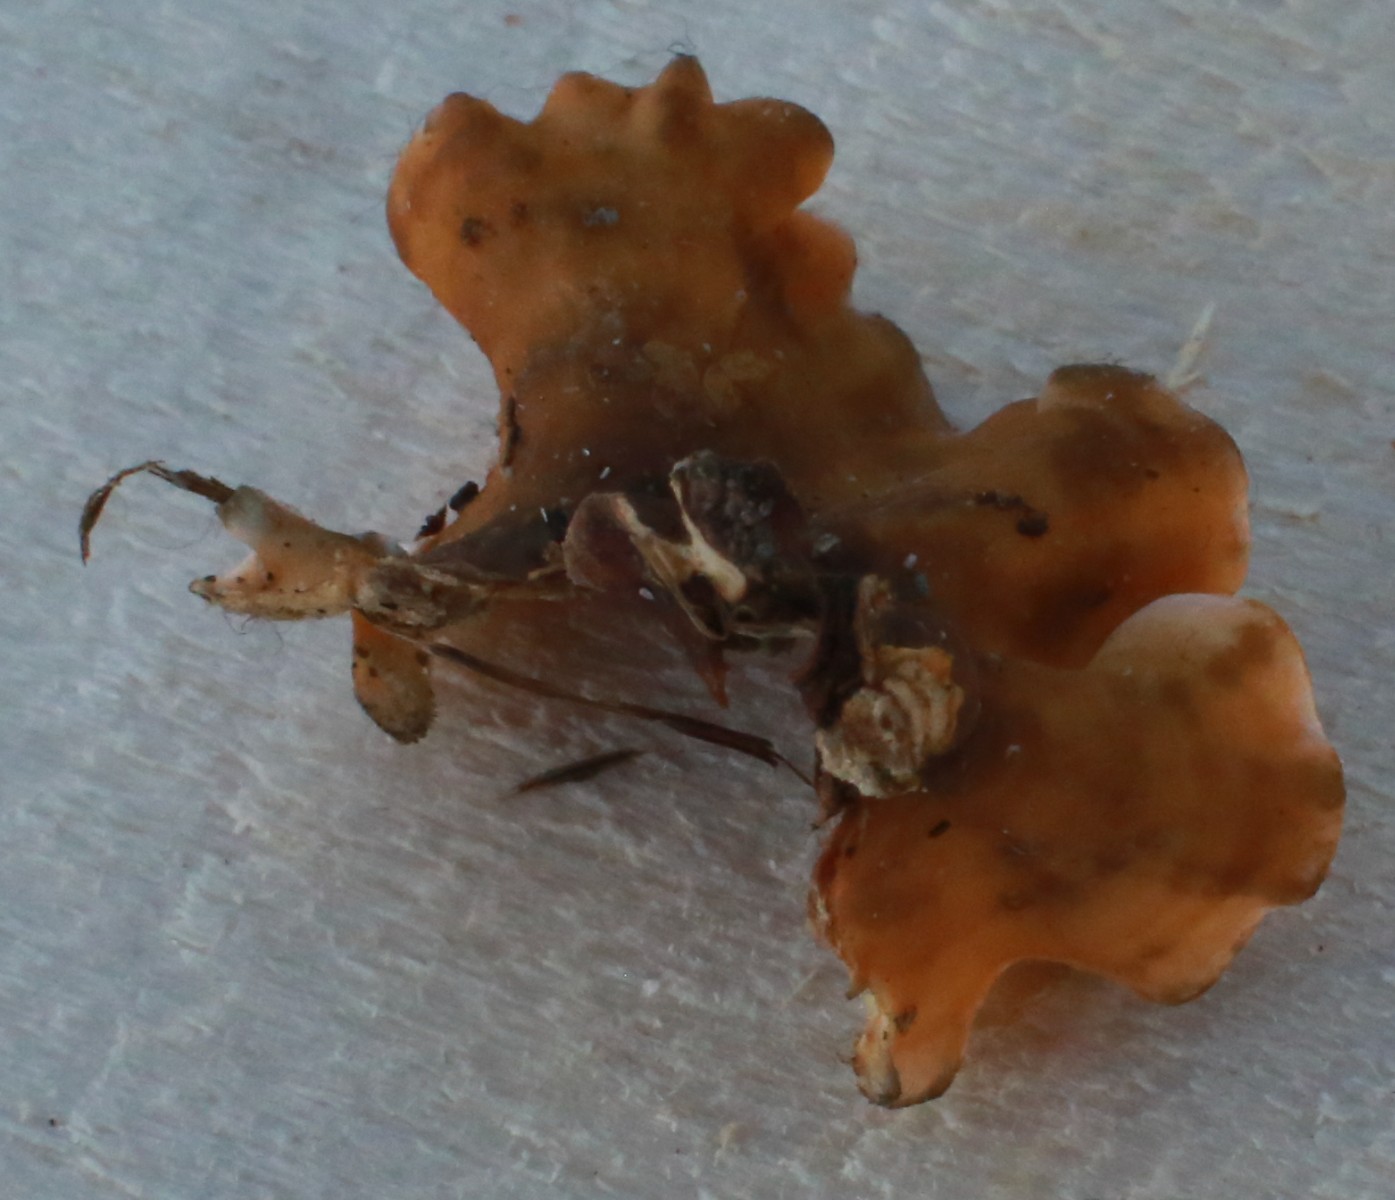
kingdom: Fungi
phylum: Basidiomycota
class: Agaricomycetes
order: Russulales
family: Stereaceae
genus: Stereum
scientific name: Stereum hirsutum
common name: håret lædersvamp
